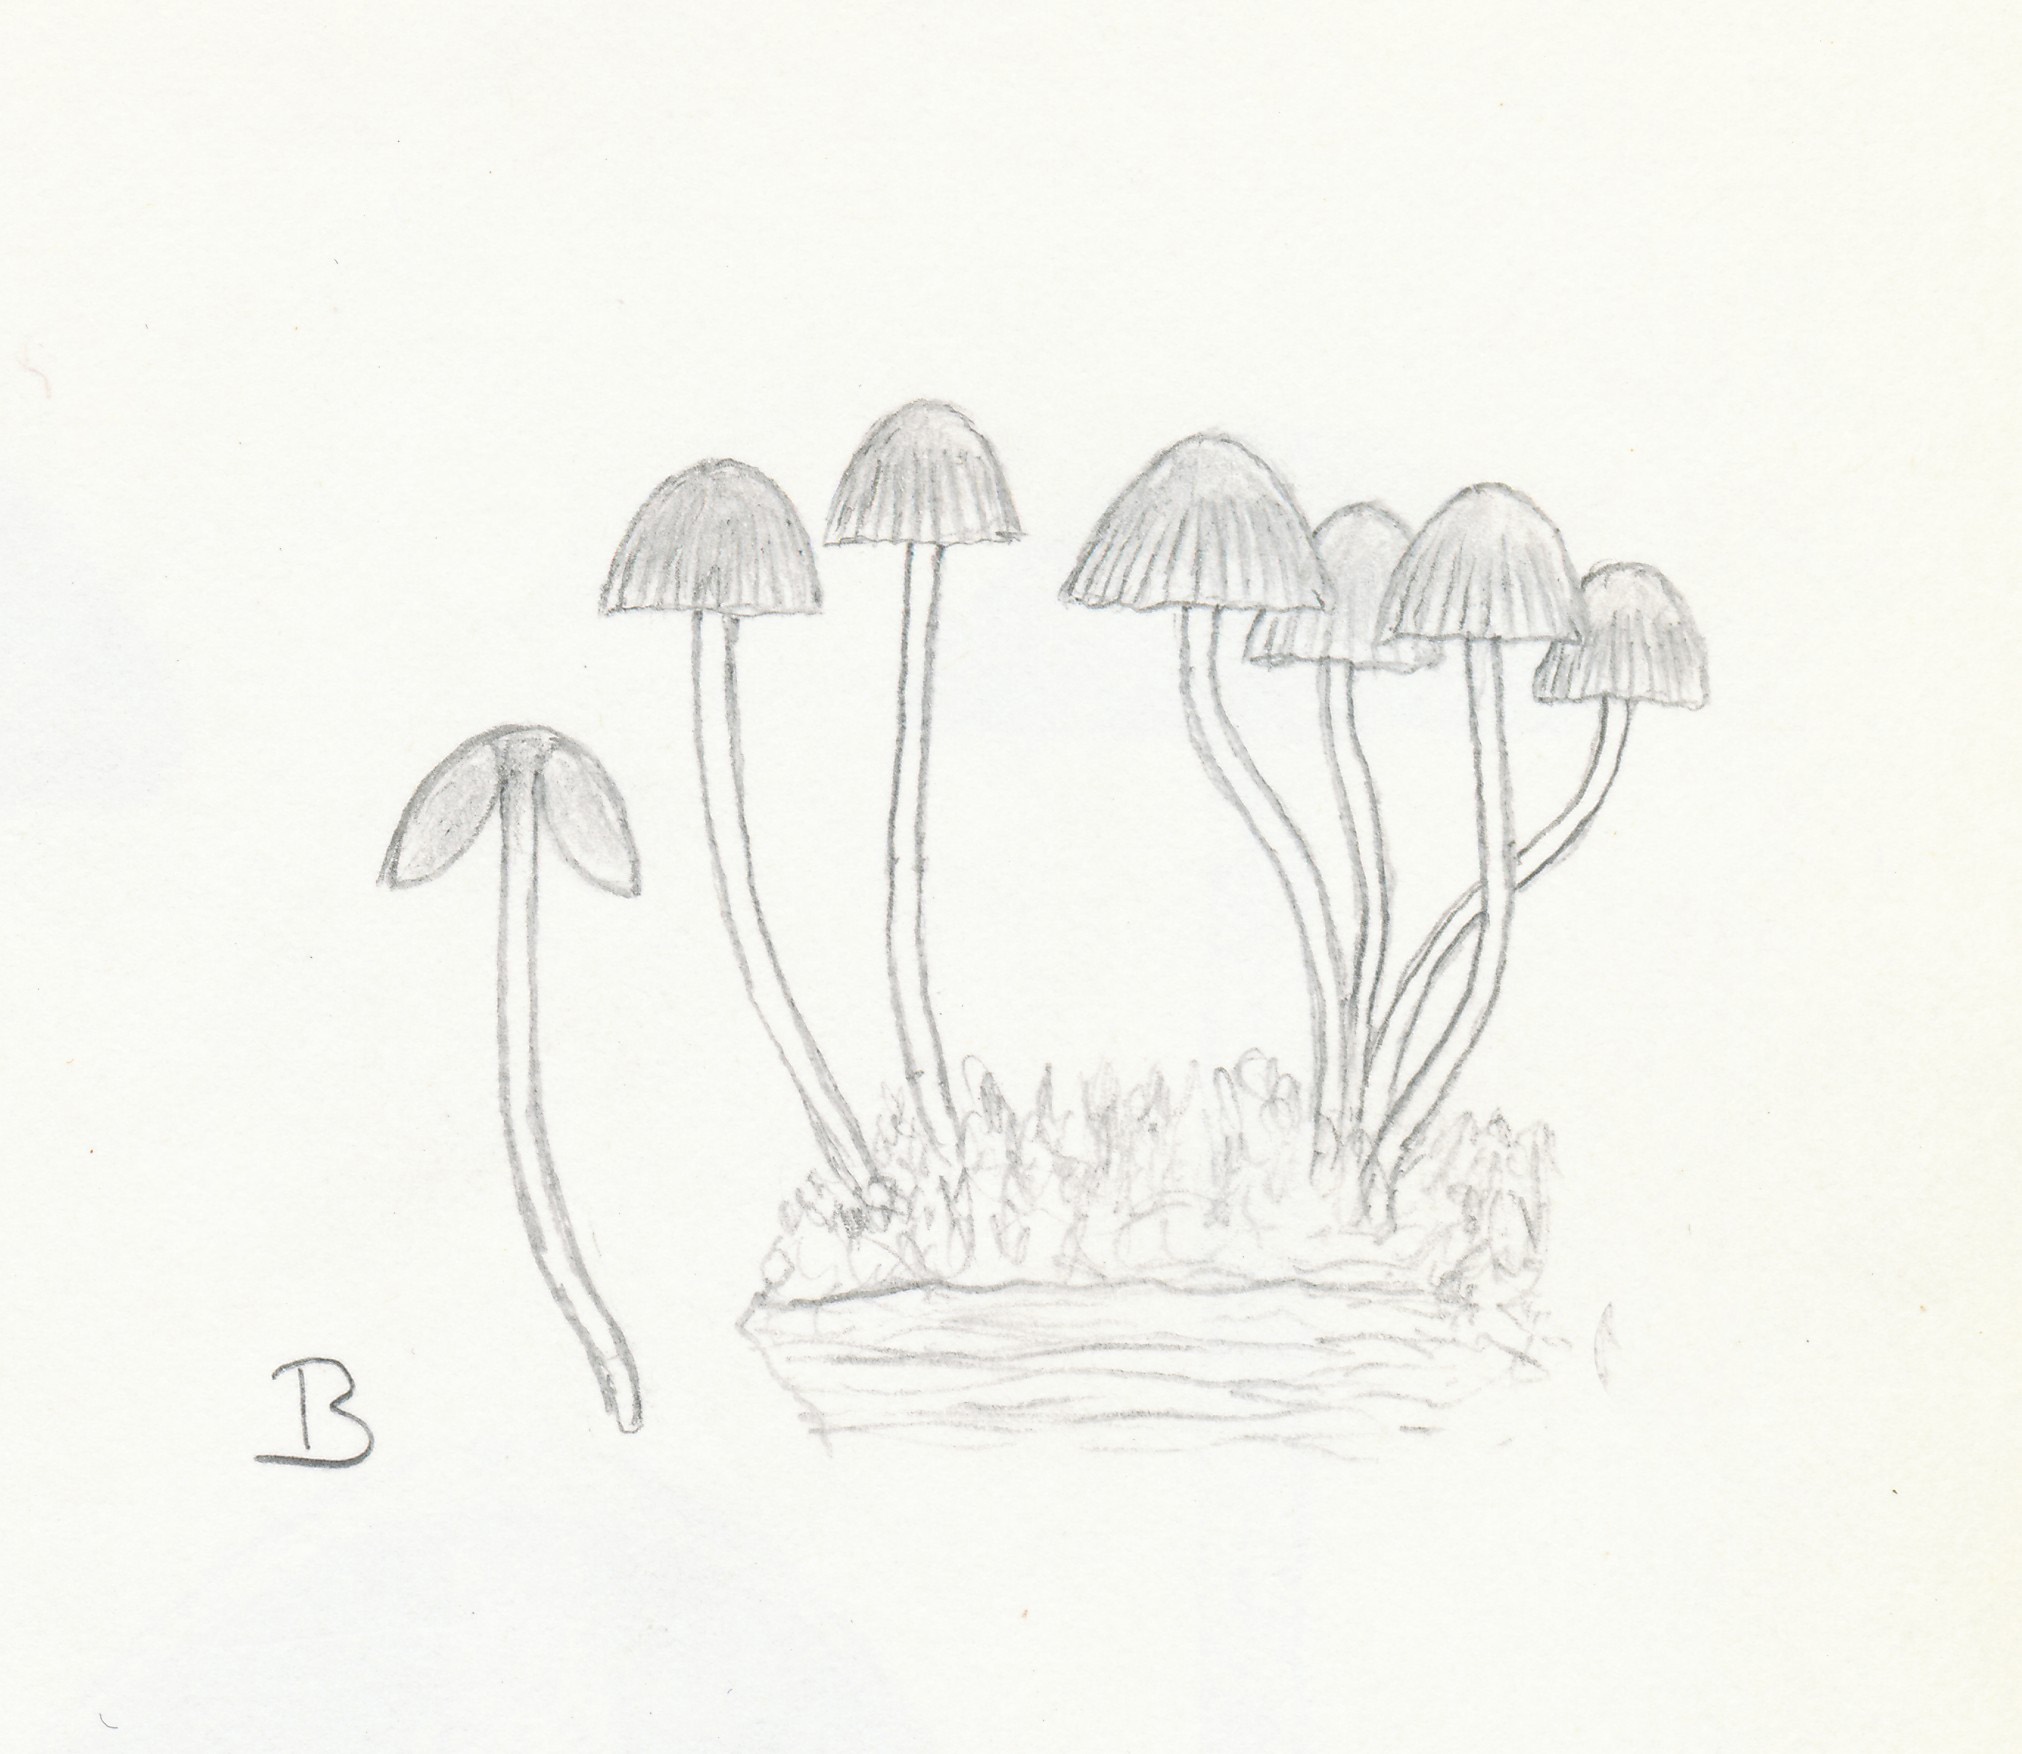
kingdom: Fungi
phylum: Basidiomycota
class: Agaricomycetes
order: Agaricales
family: Psathyrellaceae
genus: Coprinellus
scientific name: Coprinellus disseminatus
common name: bredsået blækhat
